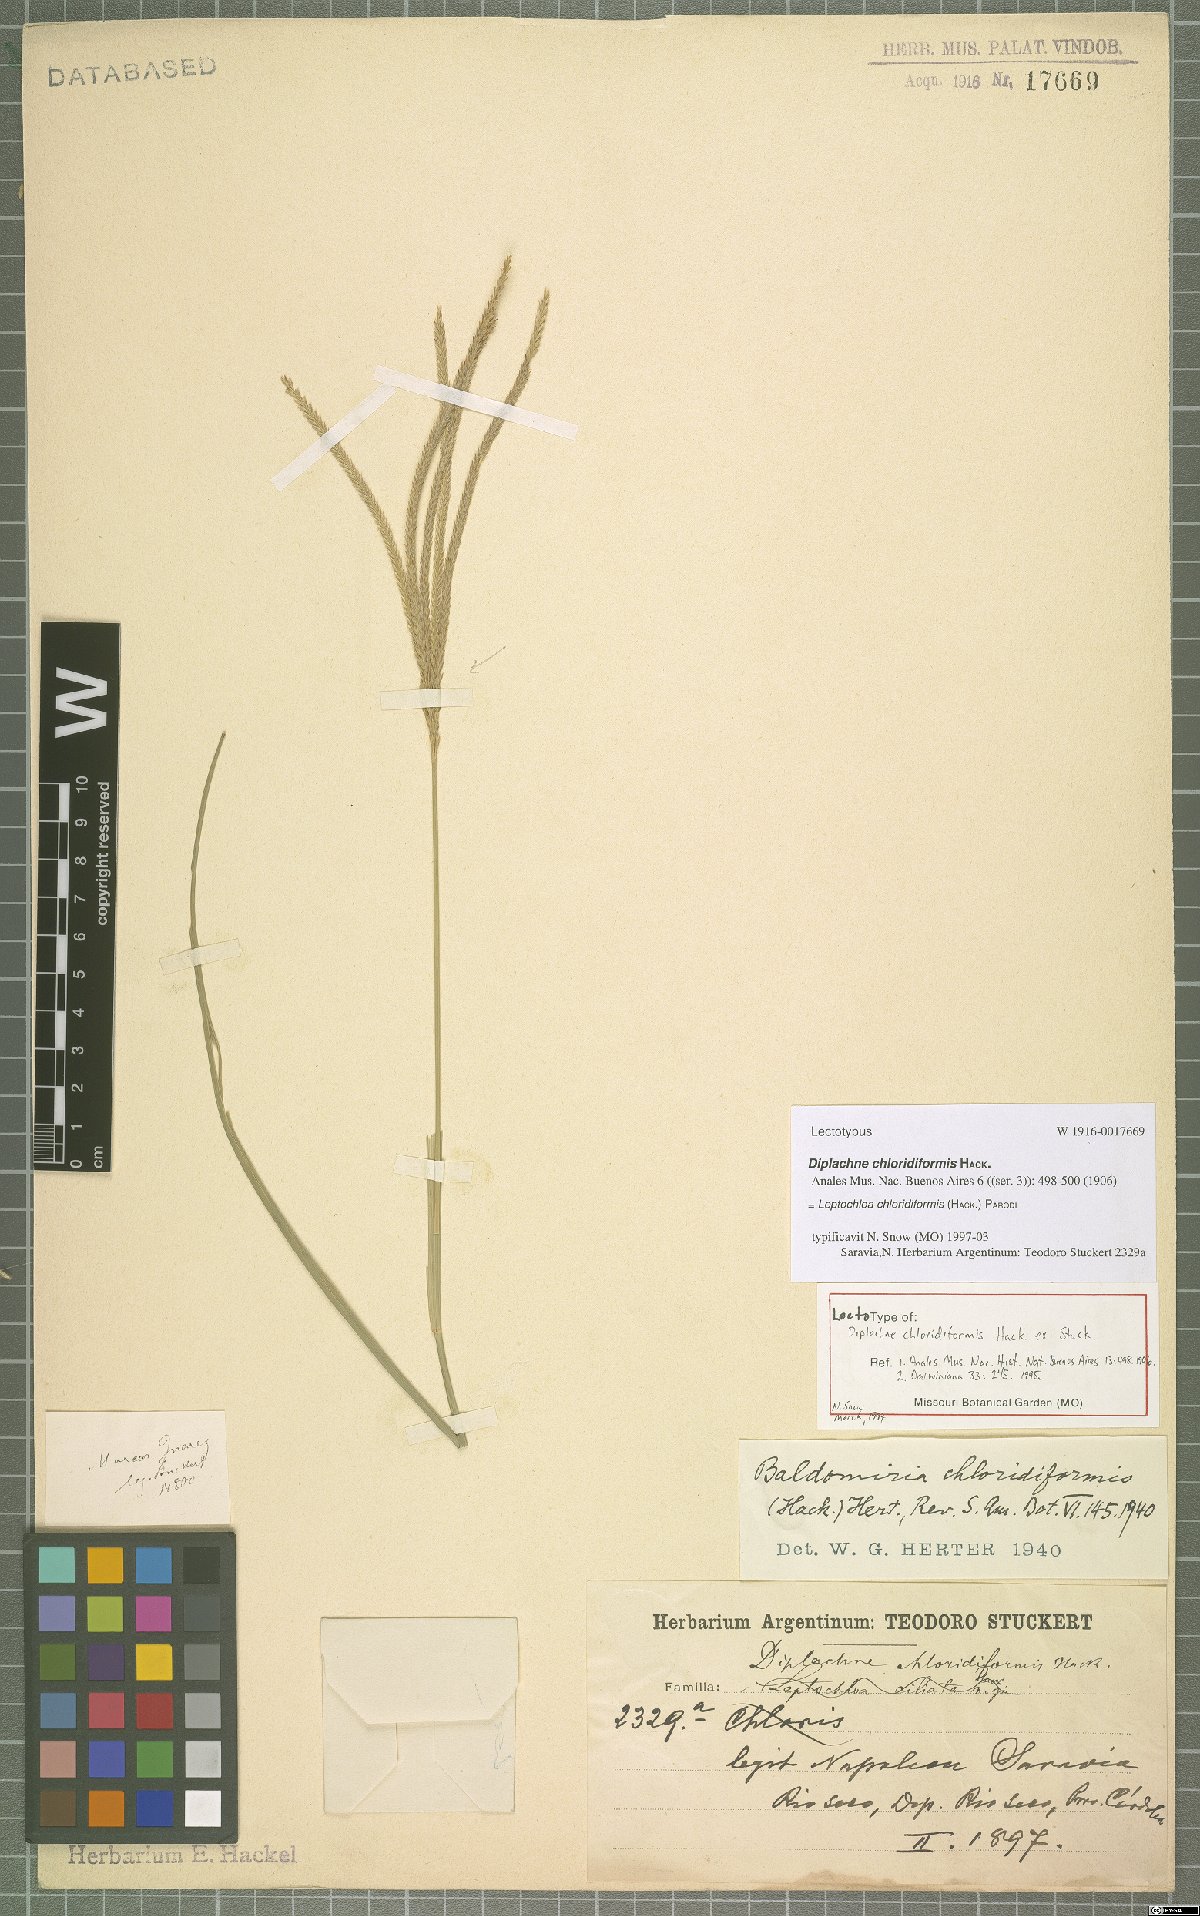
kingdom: Plantae
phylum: Tracheophyta
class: Liliopsida
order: Poales
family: Poaceae
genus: Leptochloa
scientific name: Leptochloa chloridiformis
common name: Argentine sprangletop
